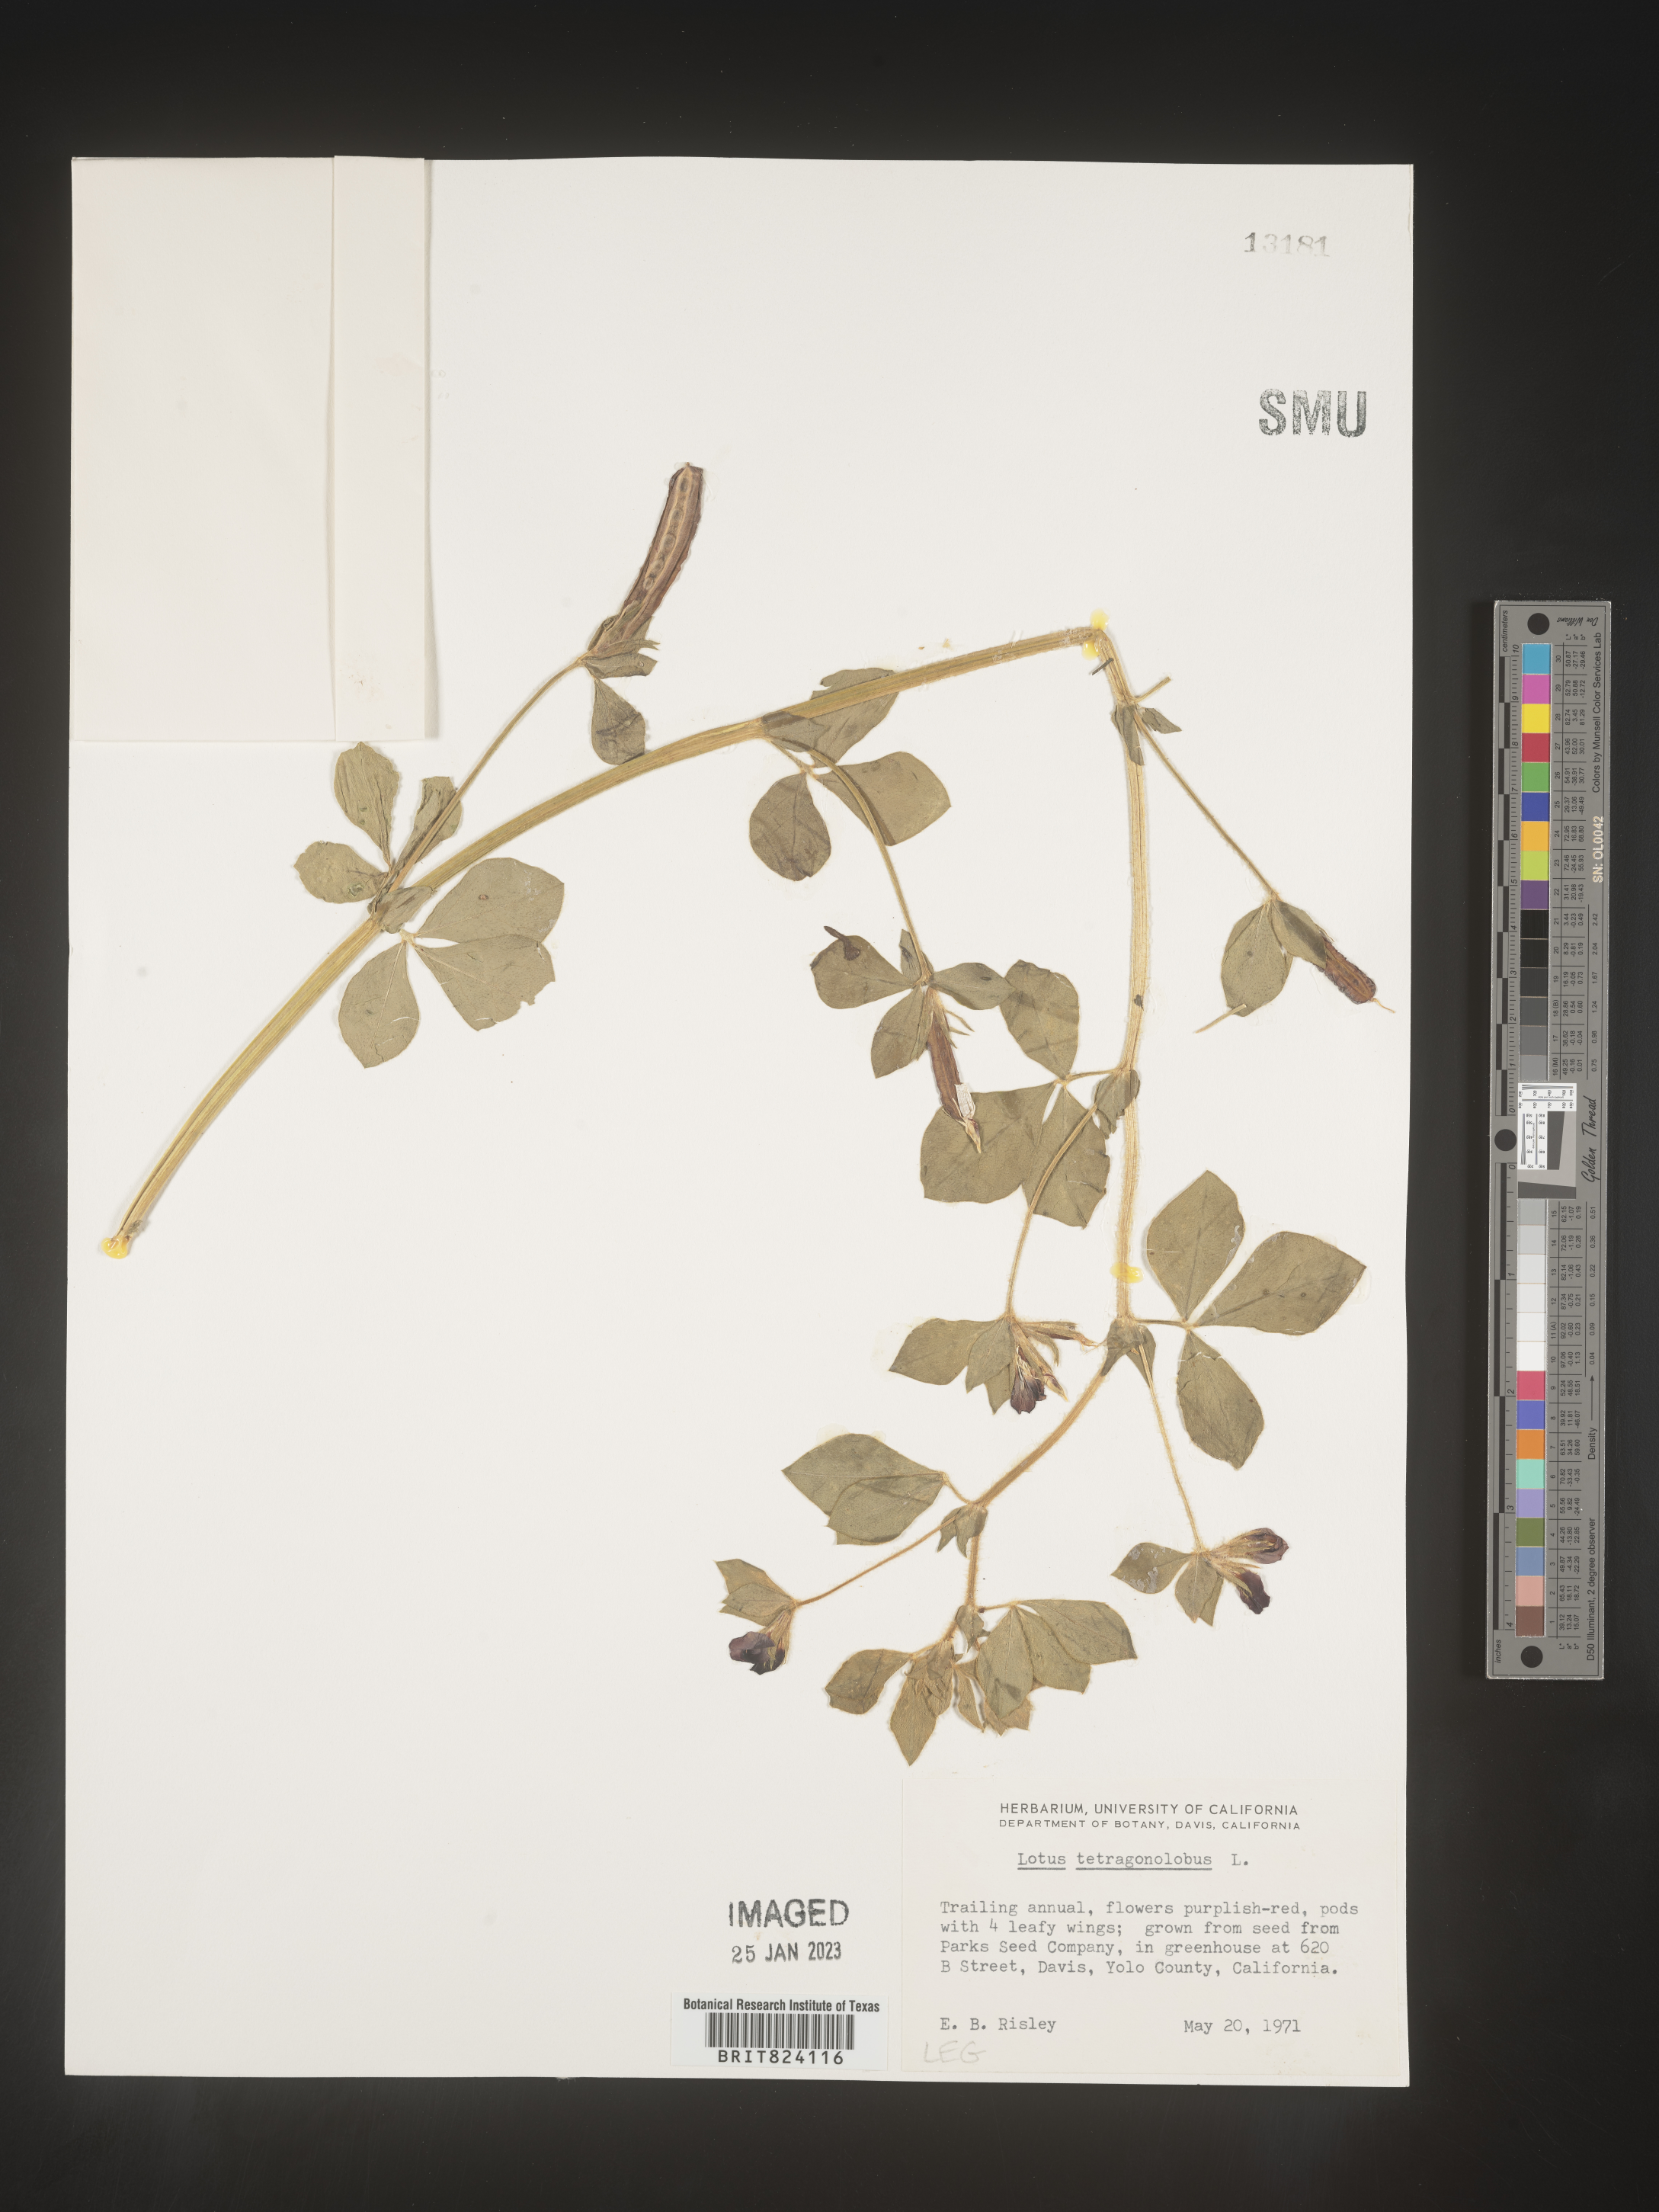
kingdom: Plantae
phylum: Tracheophyta
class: Magnoliopsida
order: Fabales
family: Fabaceae
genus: Acmispon
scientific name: Acmispon intricatus
